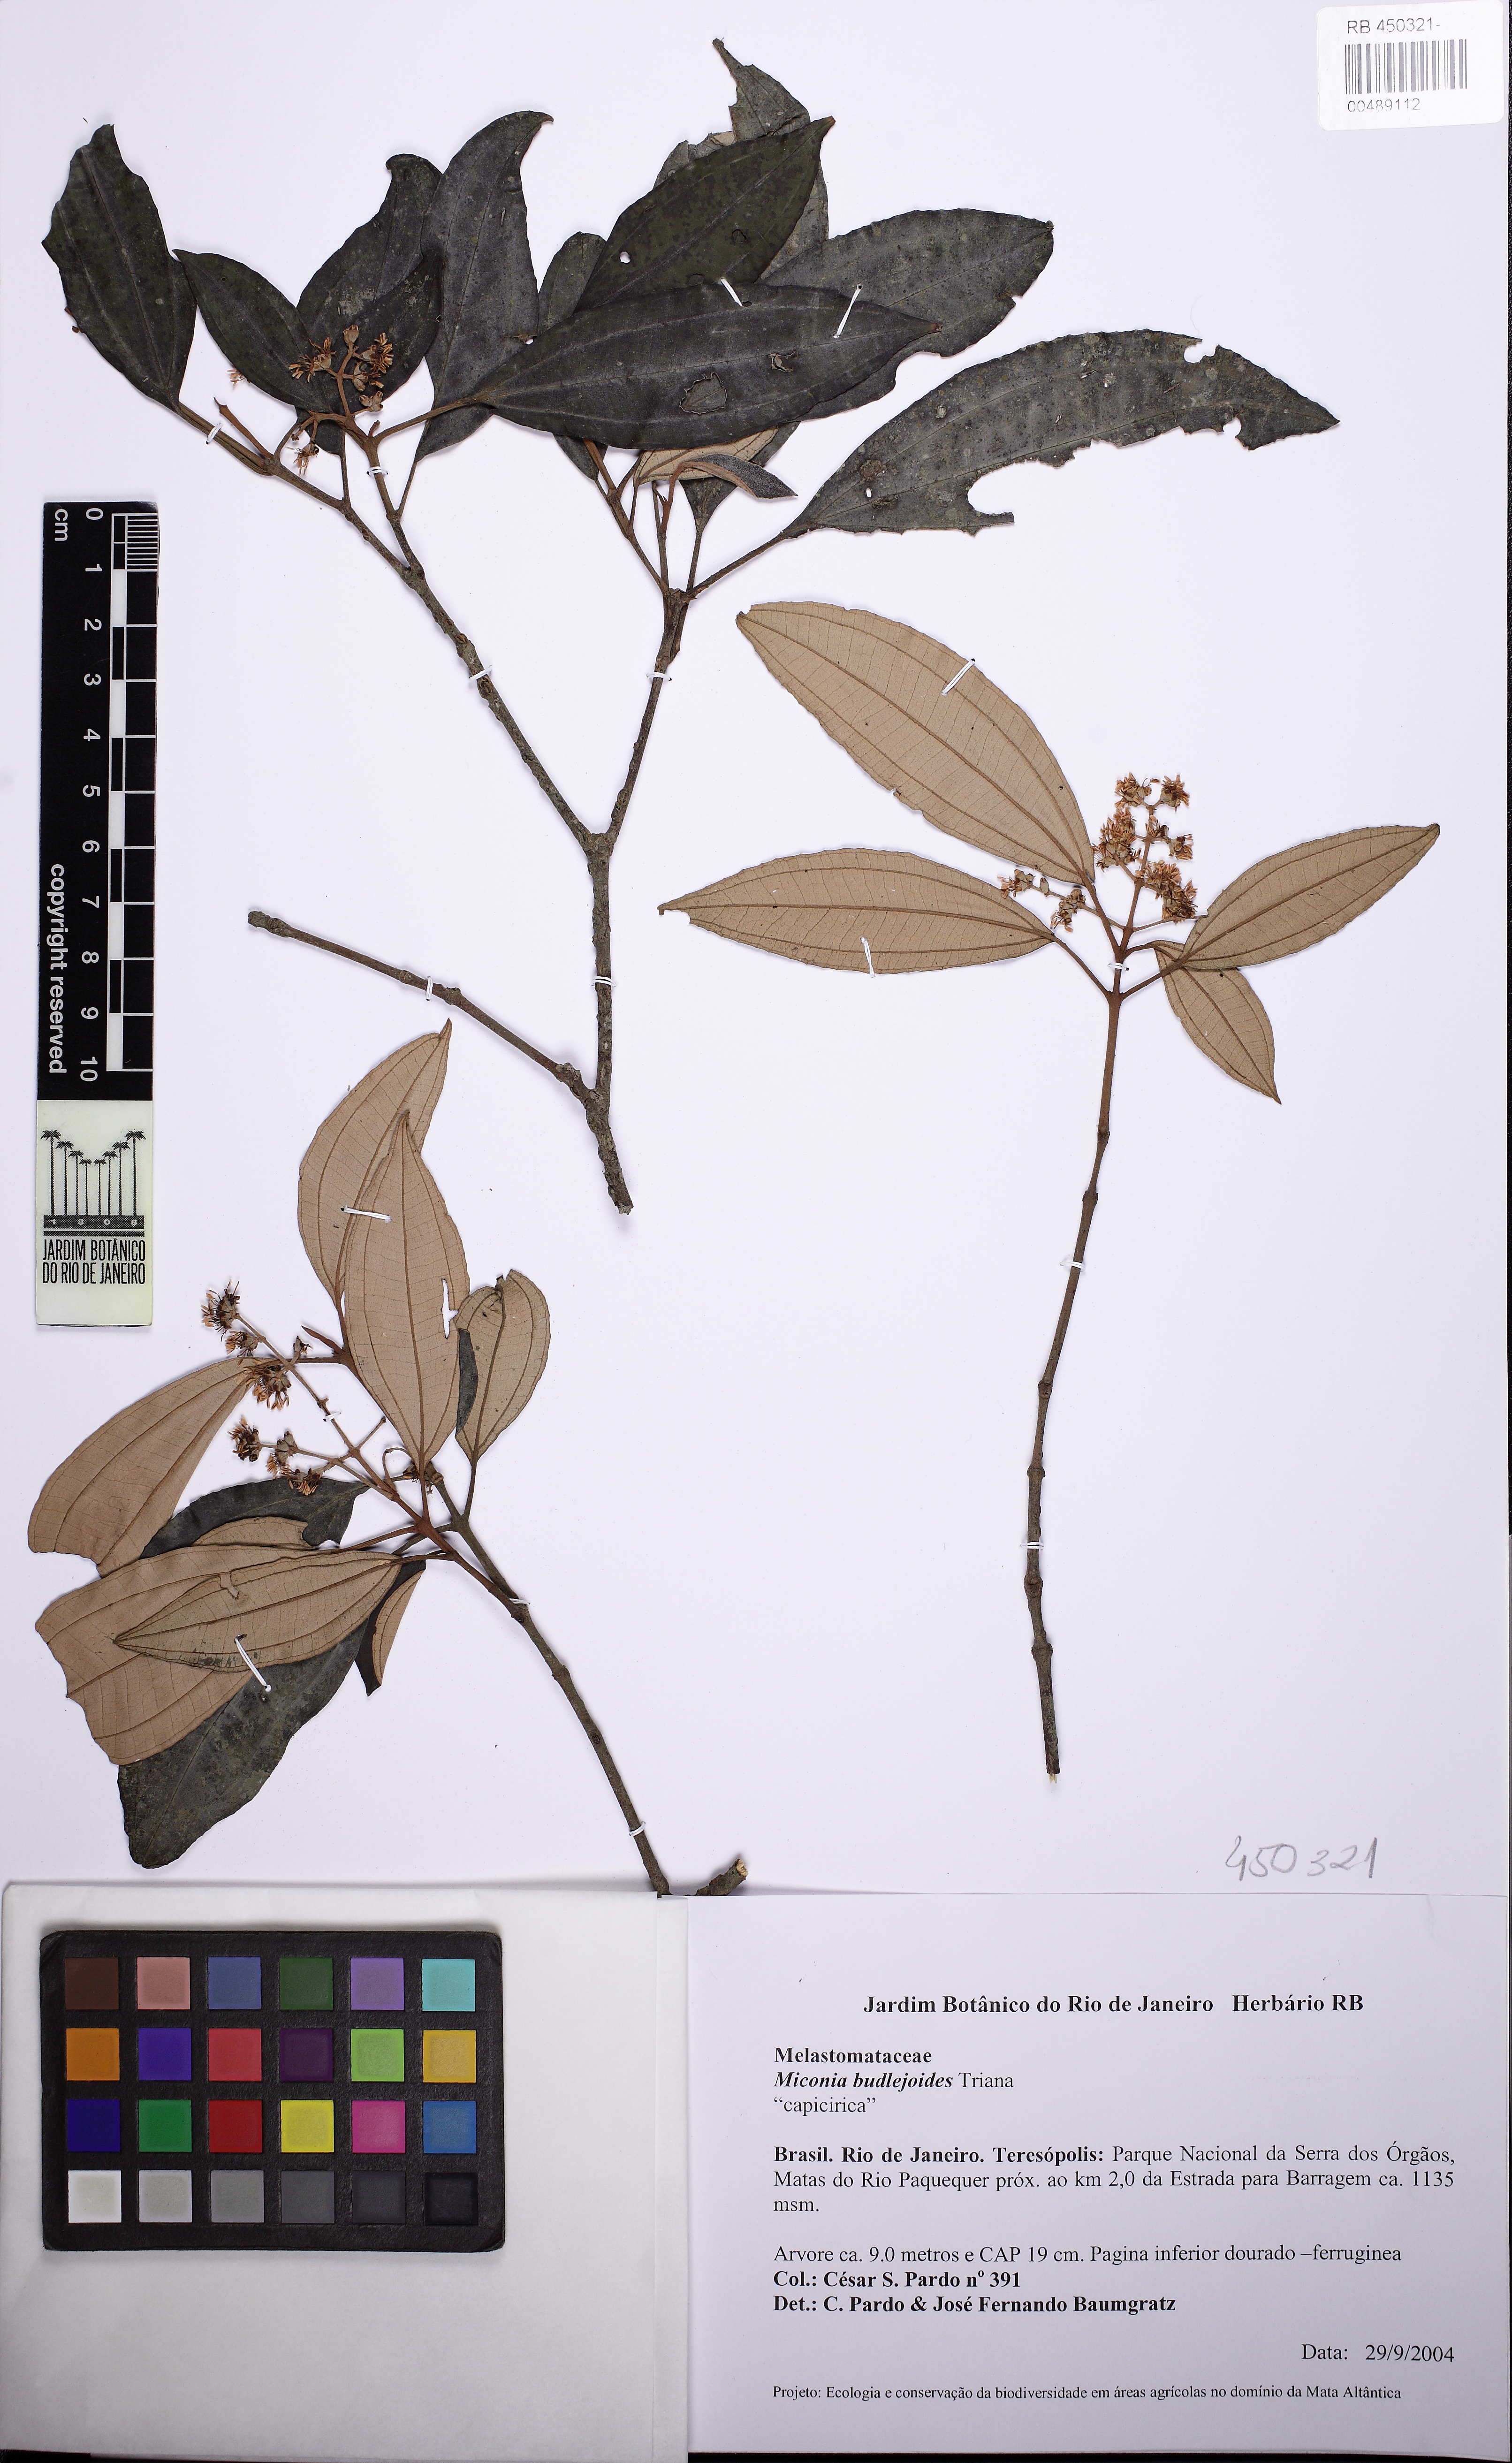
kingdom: Plantae
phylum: Tracheophyta
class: Magnoliopsida
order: Myrtales
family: Melastomataceae
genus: Miconia
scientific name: Miconia goldenbergiana
